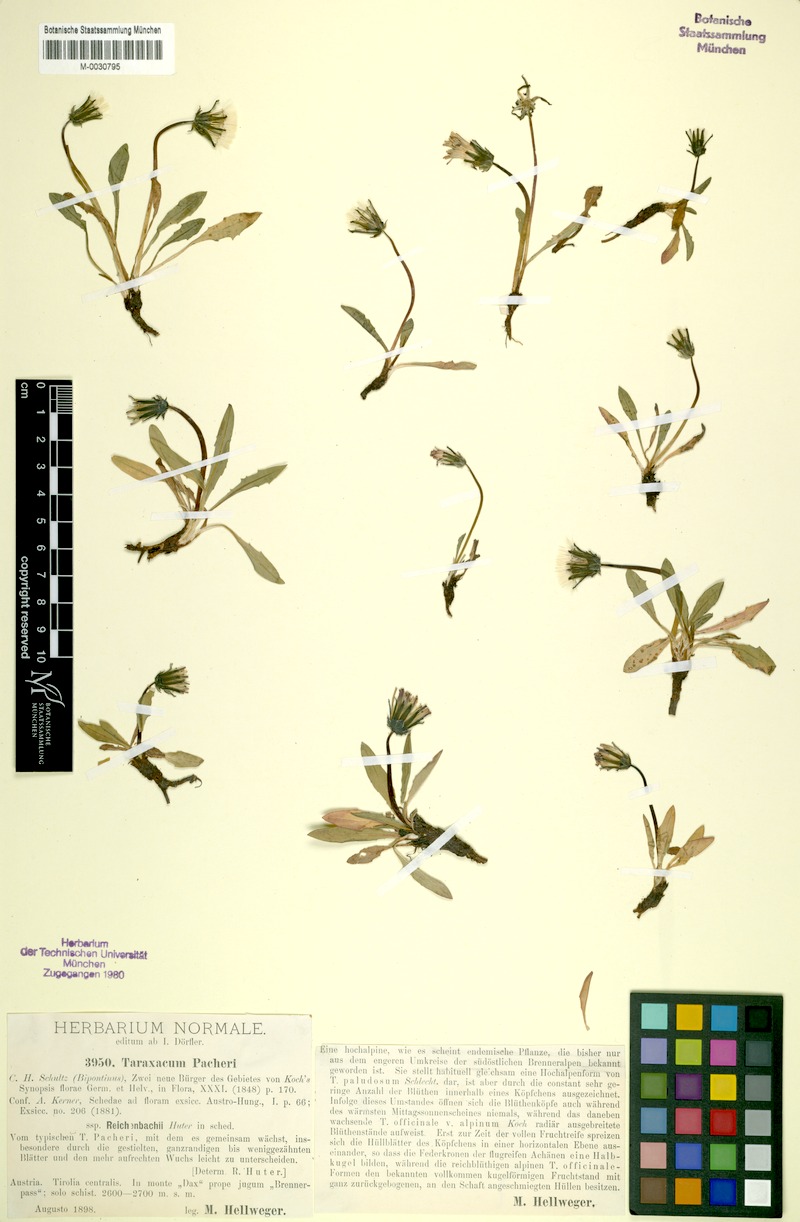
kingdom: Plantae
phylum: Tracheophyta
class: Magnoliopsida
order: Asterales
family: Asteraceae
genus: Taraxacum
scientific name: Taraxacum reichenbachii
